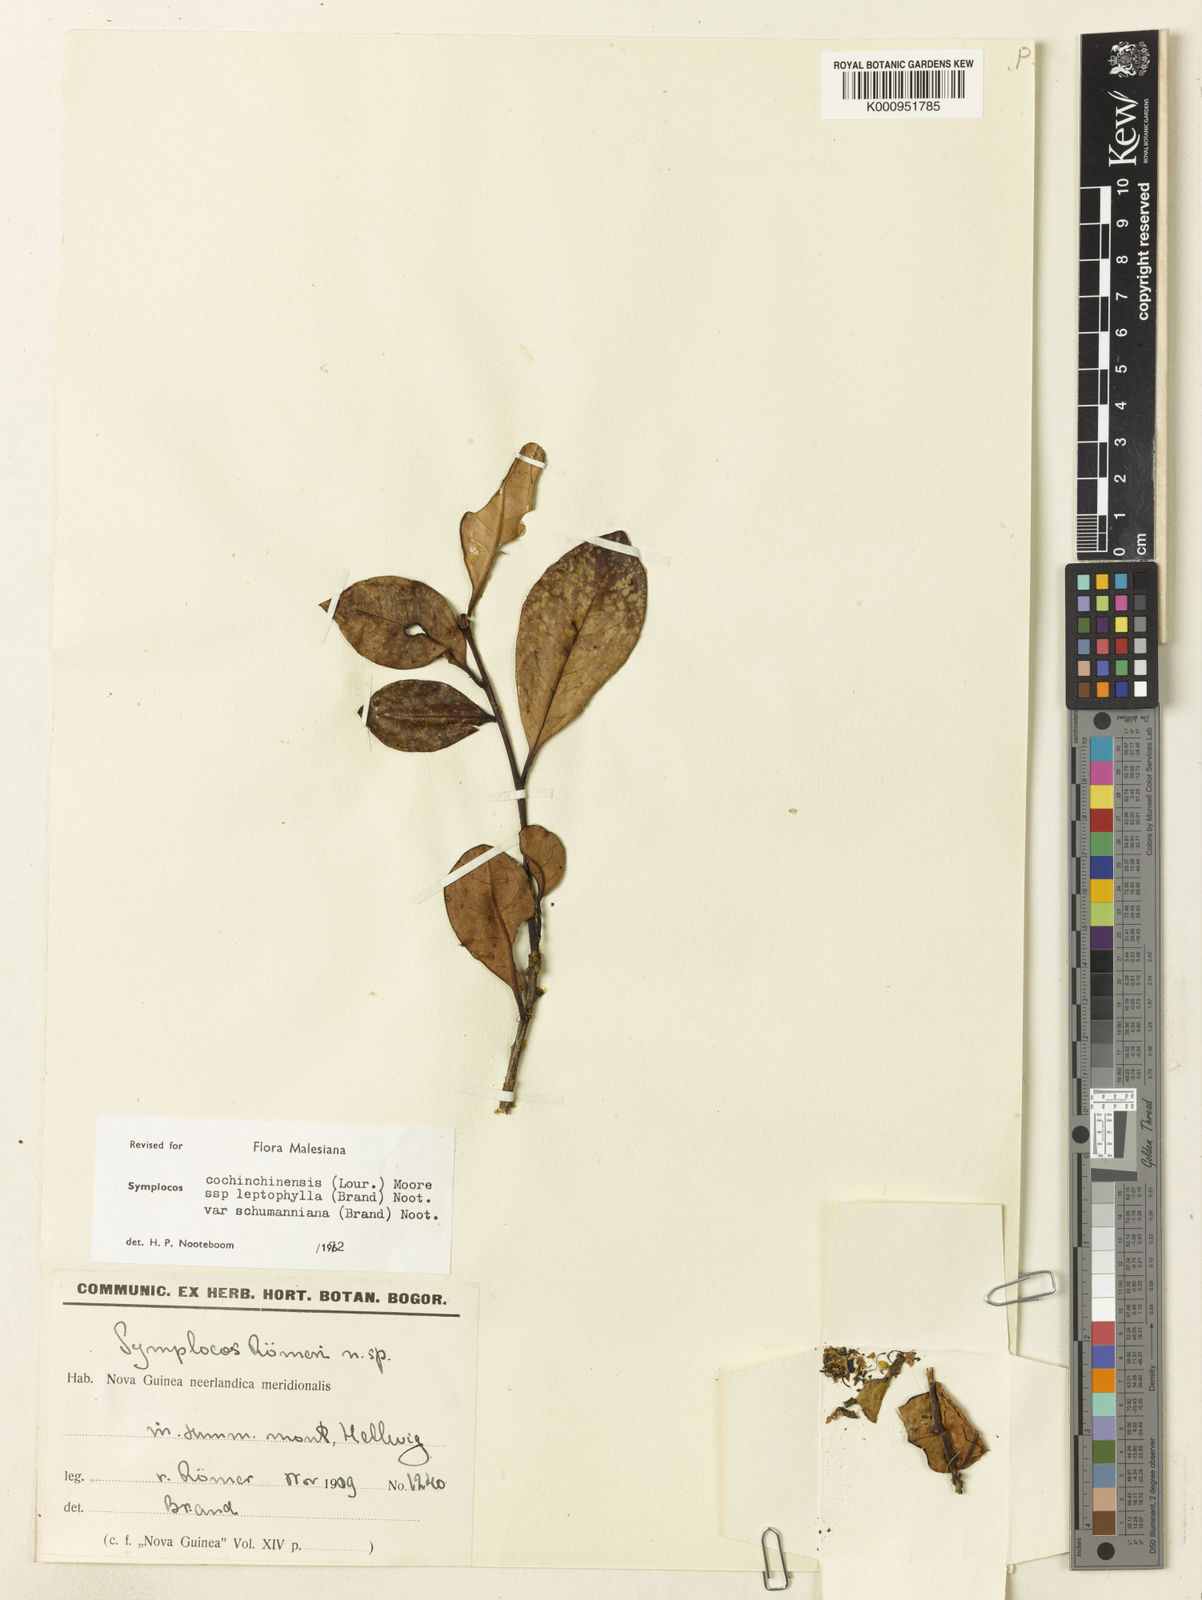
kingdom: Plantae
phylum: Tracheophyta
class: Magnoliopsida
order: Ericales
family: Symplocaceae
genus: Symplocos
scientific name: Symplocos cochinchinensis
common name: Buff hazelwood
